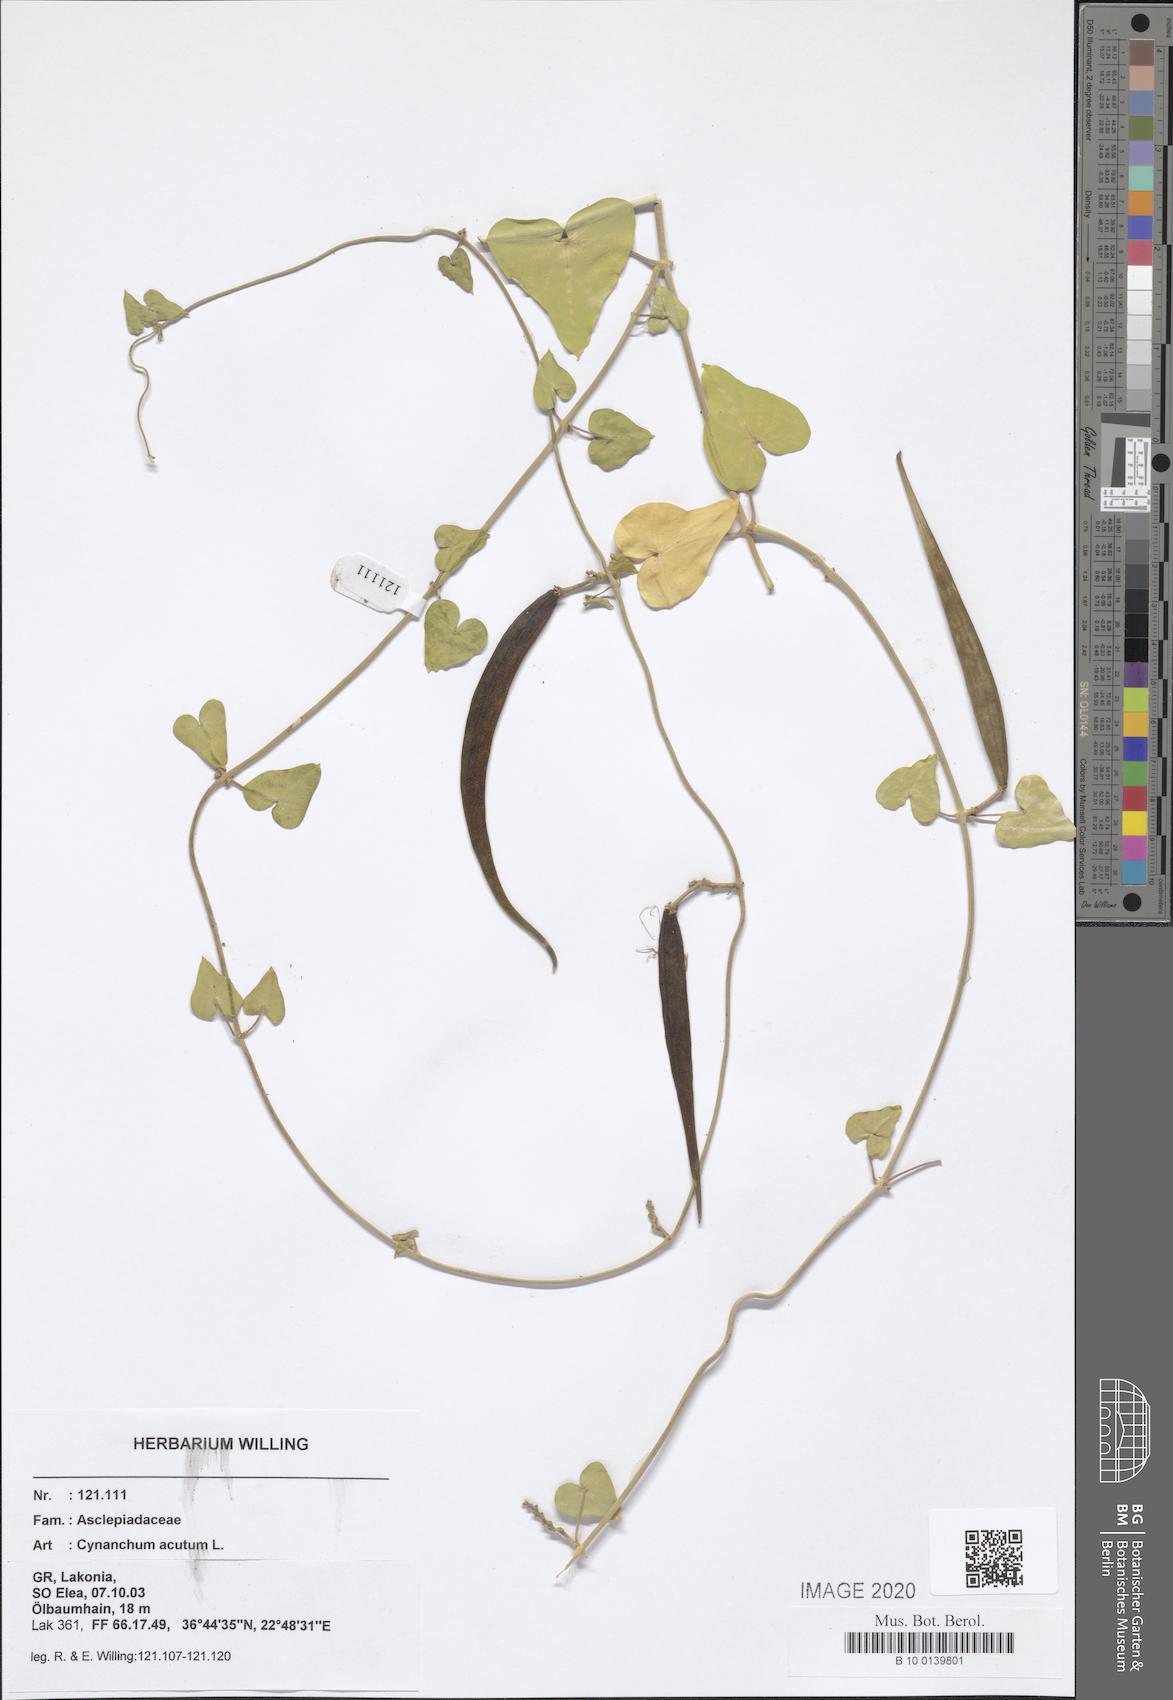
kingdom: Plantae
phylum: Tracheophyta
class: Magnoliopsida
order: Gentianales
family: Apocynaceae
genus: Cynanchum
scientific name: Cynanchum acutum
